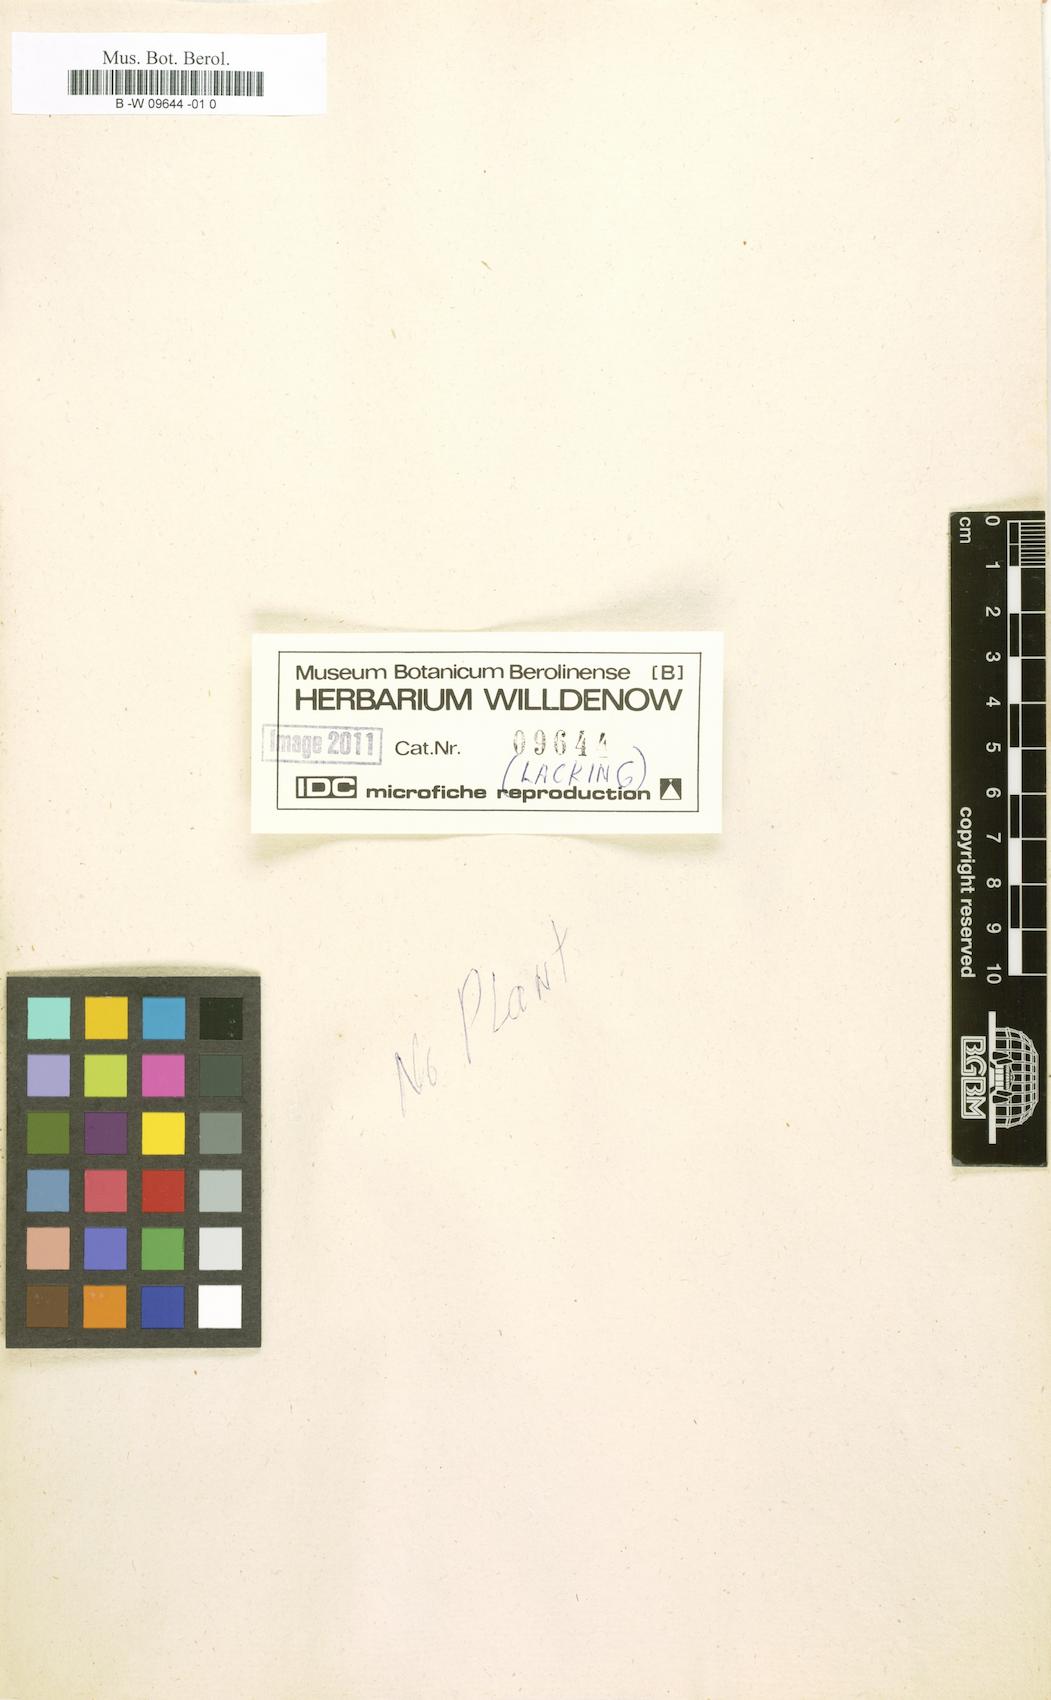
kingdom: Plantae
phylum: Tracheophyta
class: Magnoliopsida
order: Rosales
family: Rosaceae
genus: Prunus
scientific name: Prunus spinosa
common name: Blackthorn
